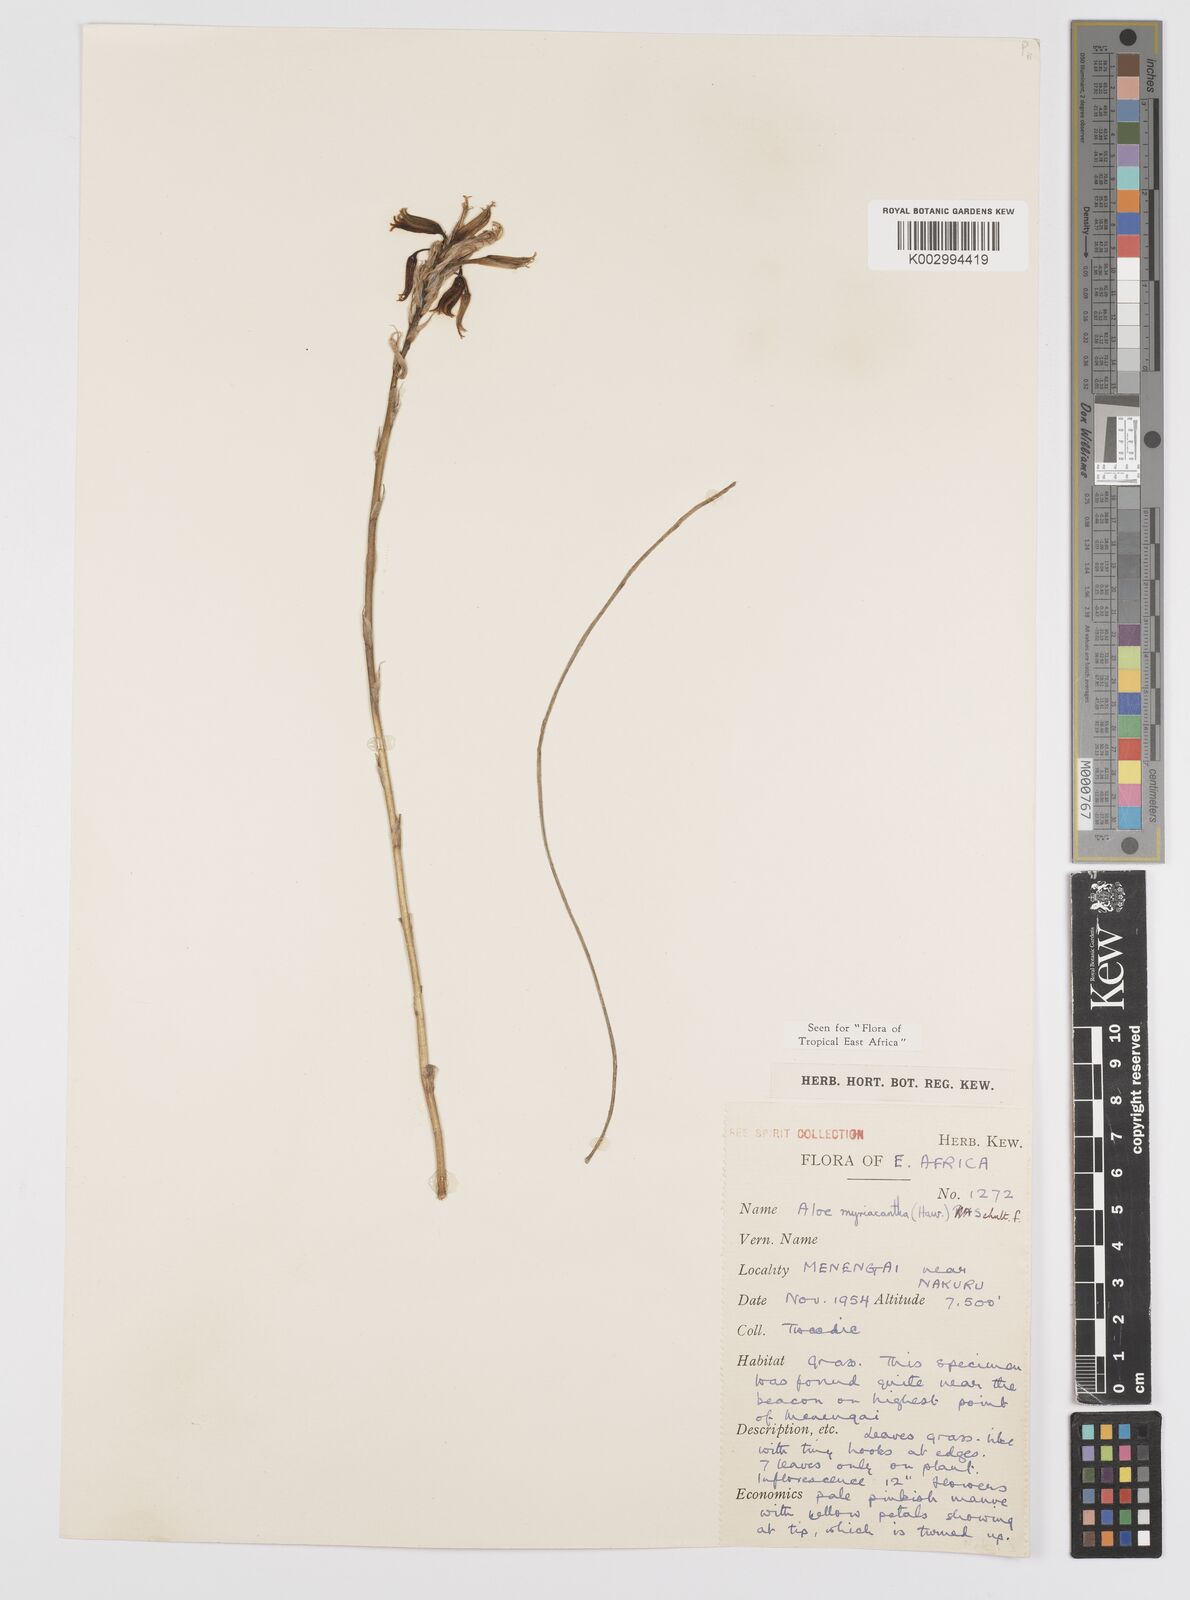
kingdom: Plantae
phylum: Tracheophyta
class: Liliopsida
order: Asparagales
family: Asphodelaceae
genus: Aloe
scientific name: Aloe myriacantha
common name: Grass aloe
